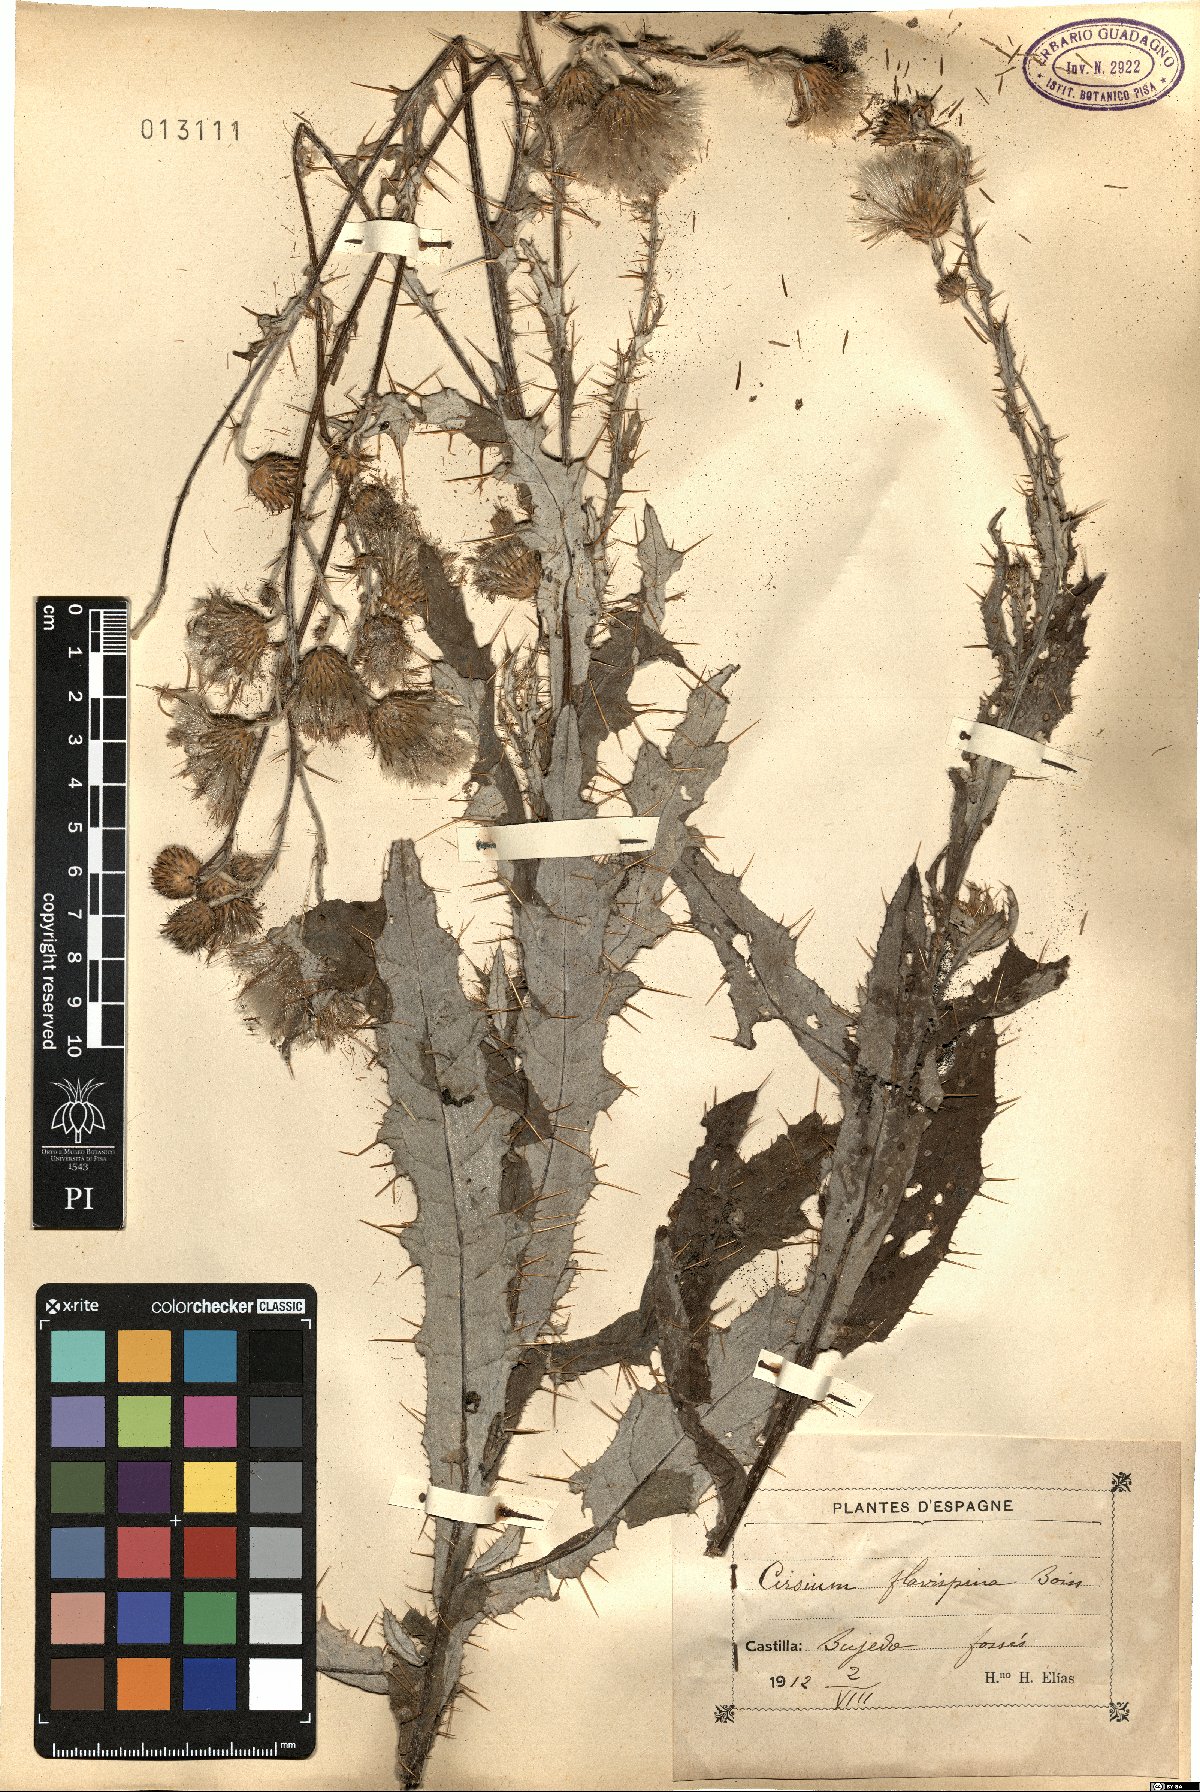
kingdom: Plantae
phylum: Tracheophyta
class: Magnoliopsida
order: Asterales
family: Asteraceae
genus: Cirsium
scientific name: Cirsium pyrenaicum
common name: Pyrenean thistle
